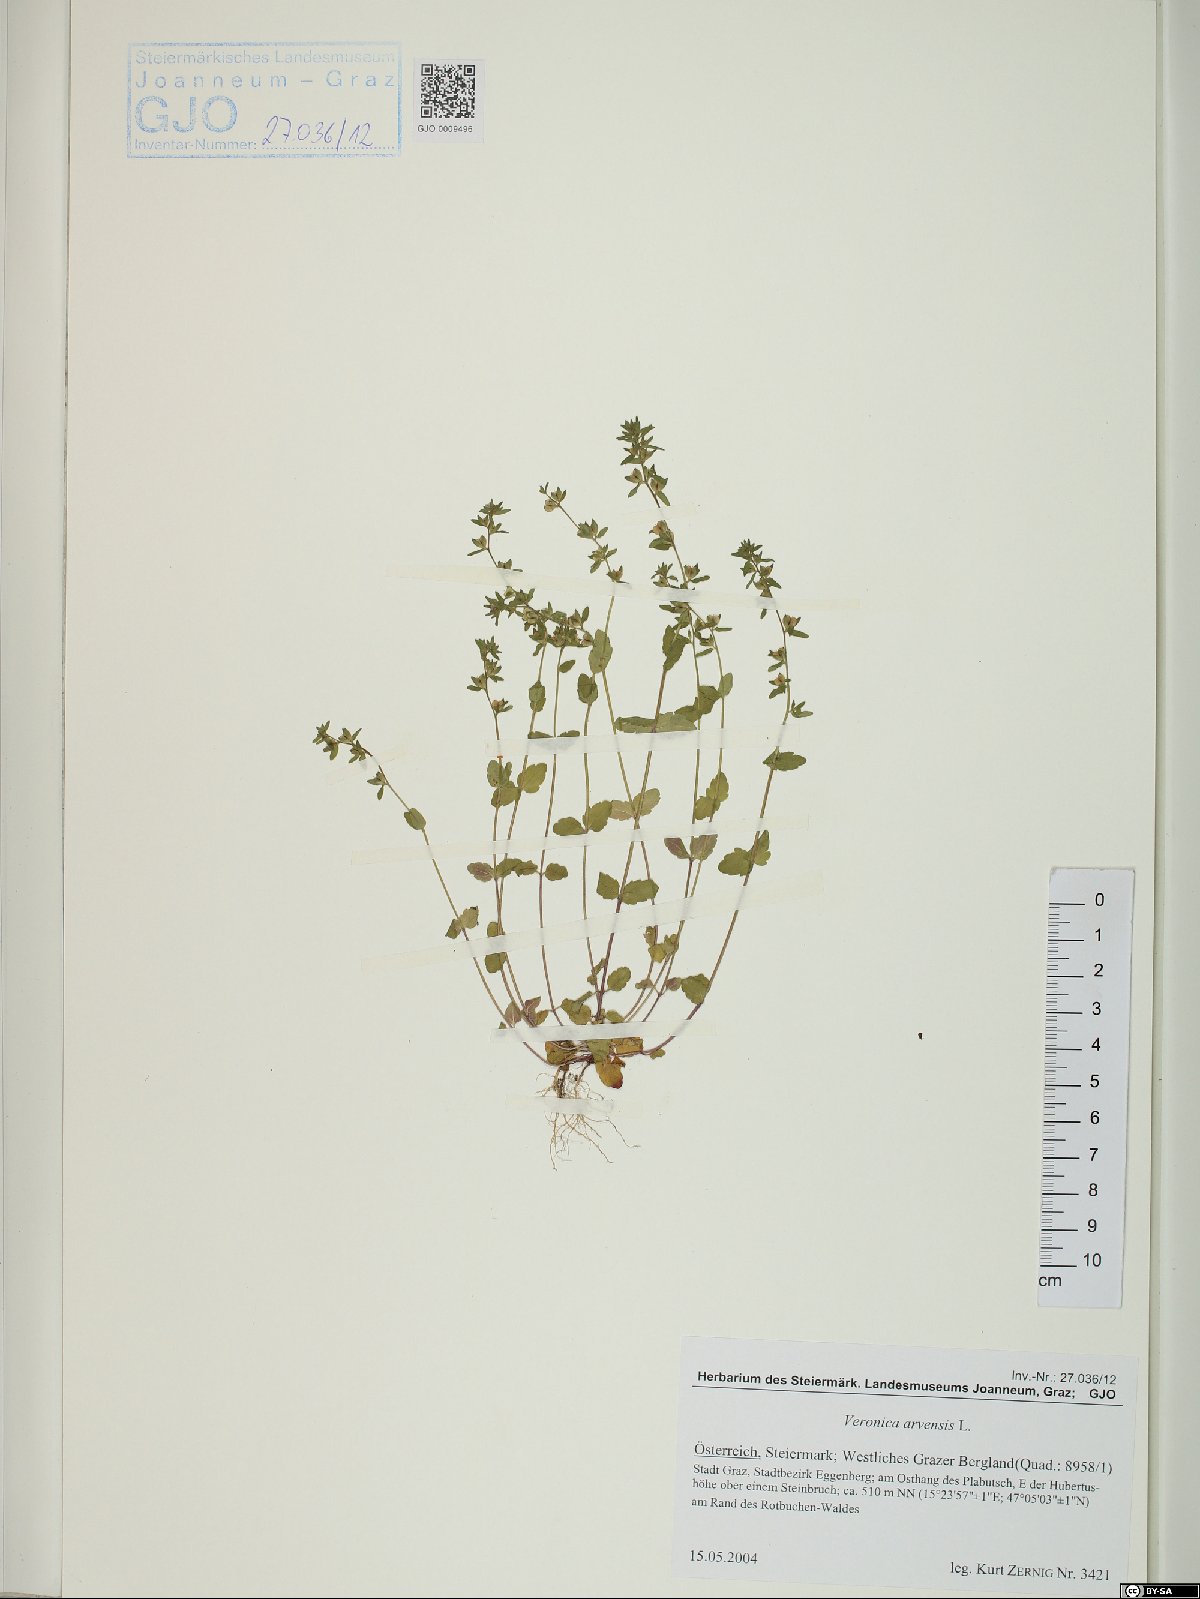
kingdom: Plantae
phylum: Tracheophyta
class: Magnoliopsida
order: Lamiales
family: Plantaginaceae
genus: Veronica
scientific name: Veronica arvensis
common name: Corn speedwell
